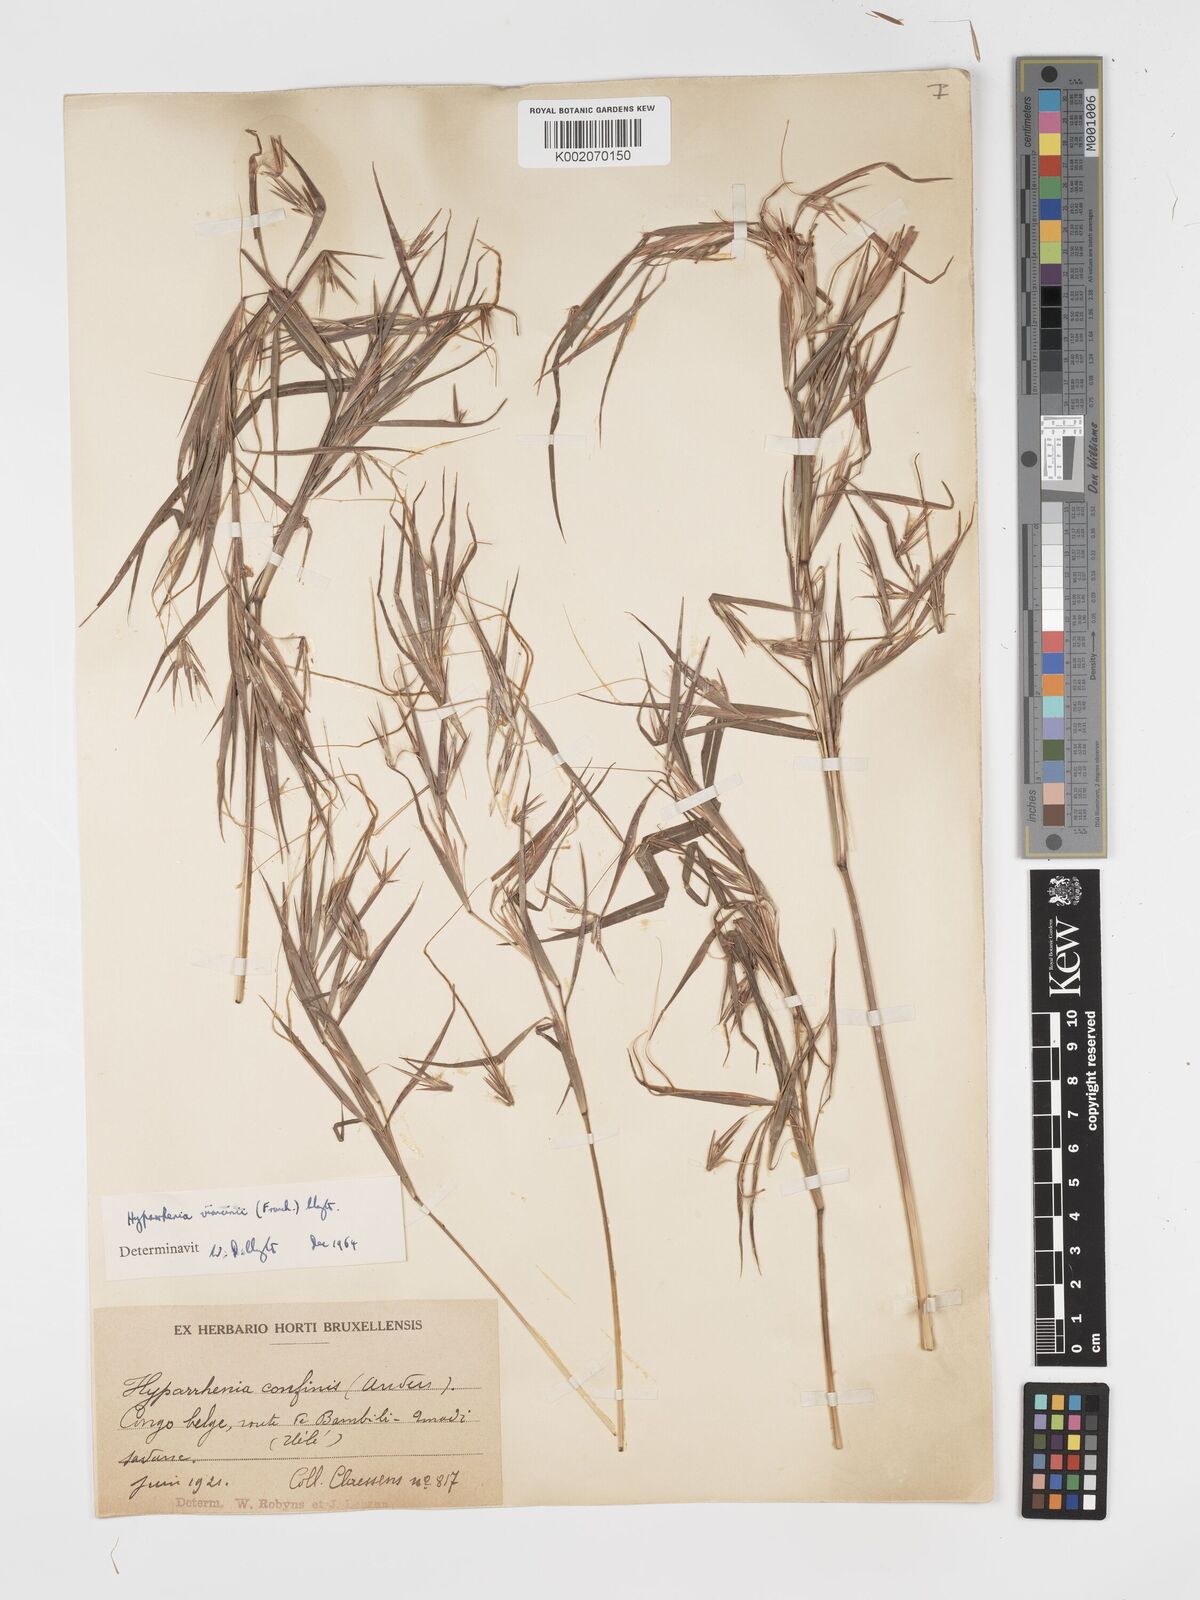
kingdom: Plantae
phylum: Tracheophyta
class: Liliopsida
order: Poales
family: Poaceae
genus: Hyparrhenia
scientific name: Hyparrhenia niariensis
